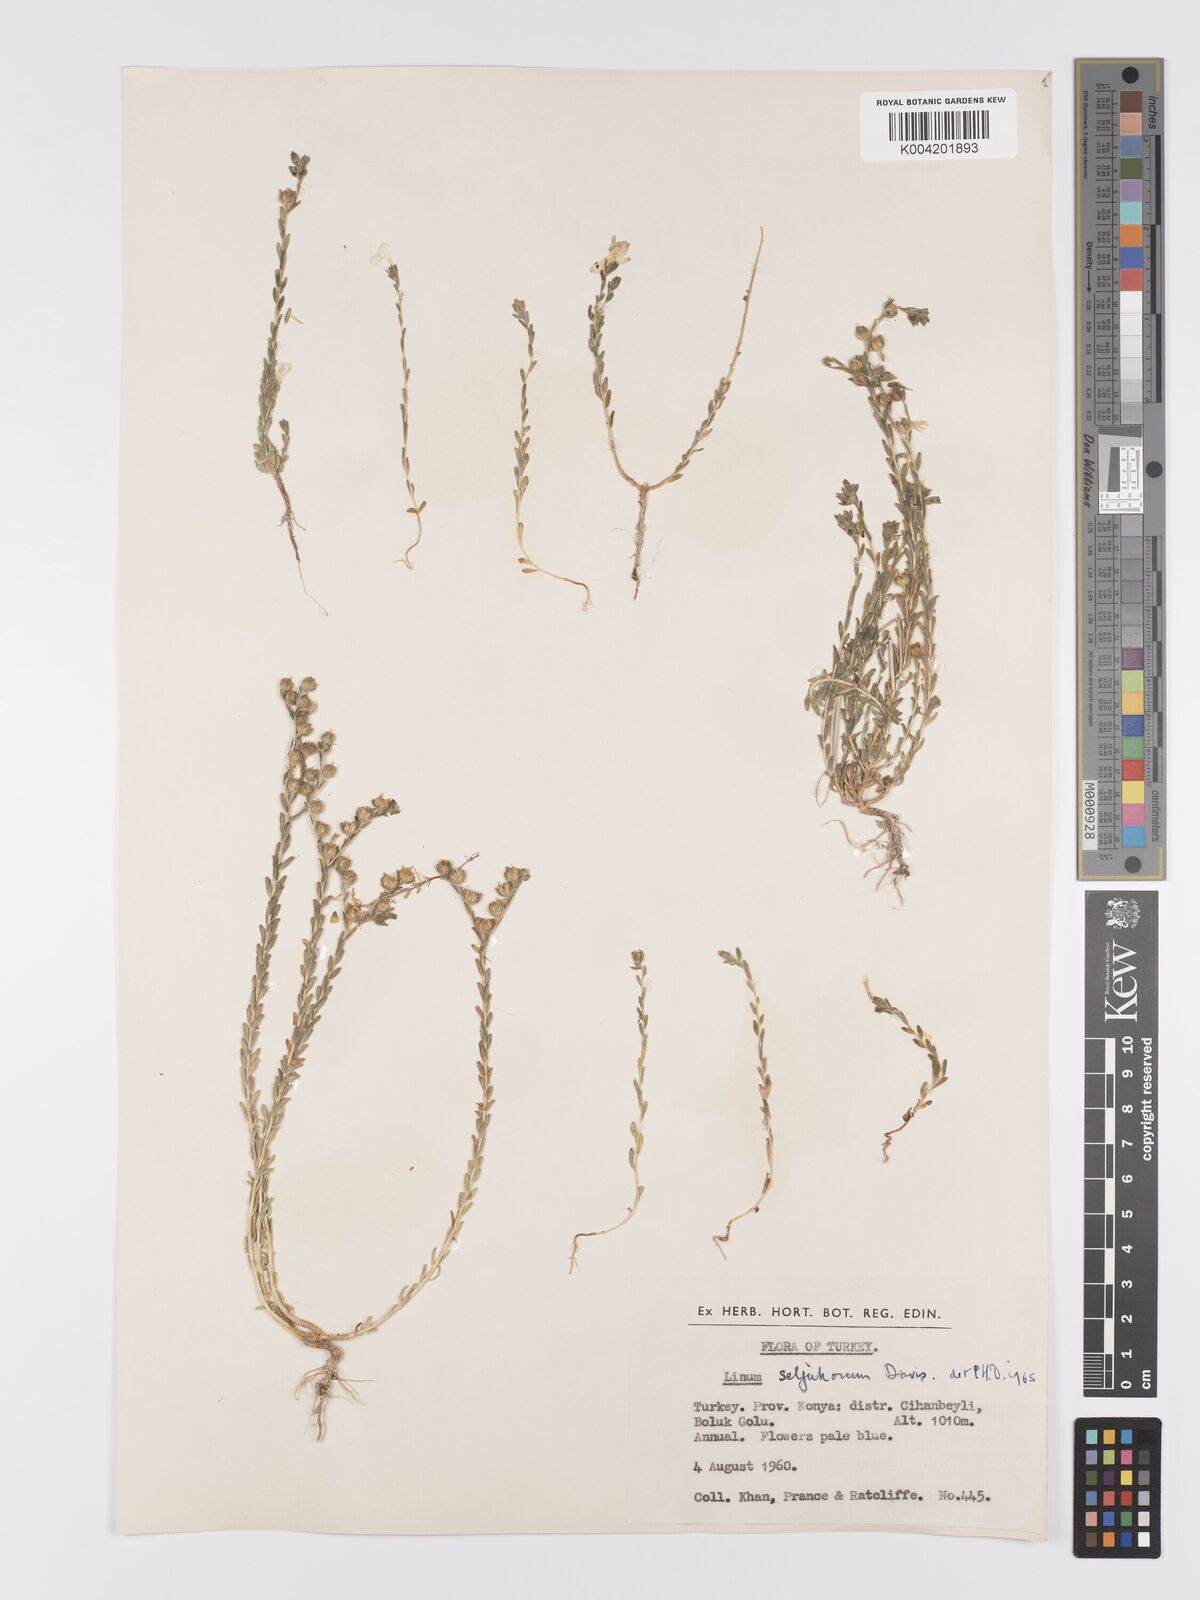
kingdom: Plantae
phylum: Tracheophyta
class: Magnoliopsida
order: Malpighiales
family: Linaceae
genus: Linum
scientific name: Linum
